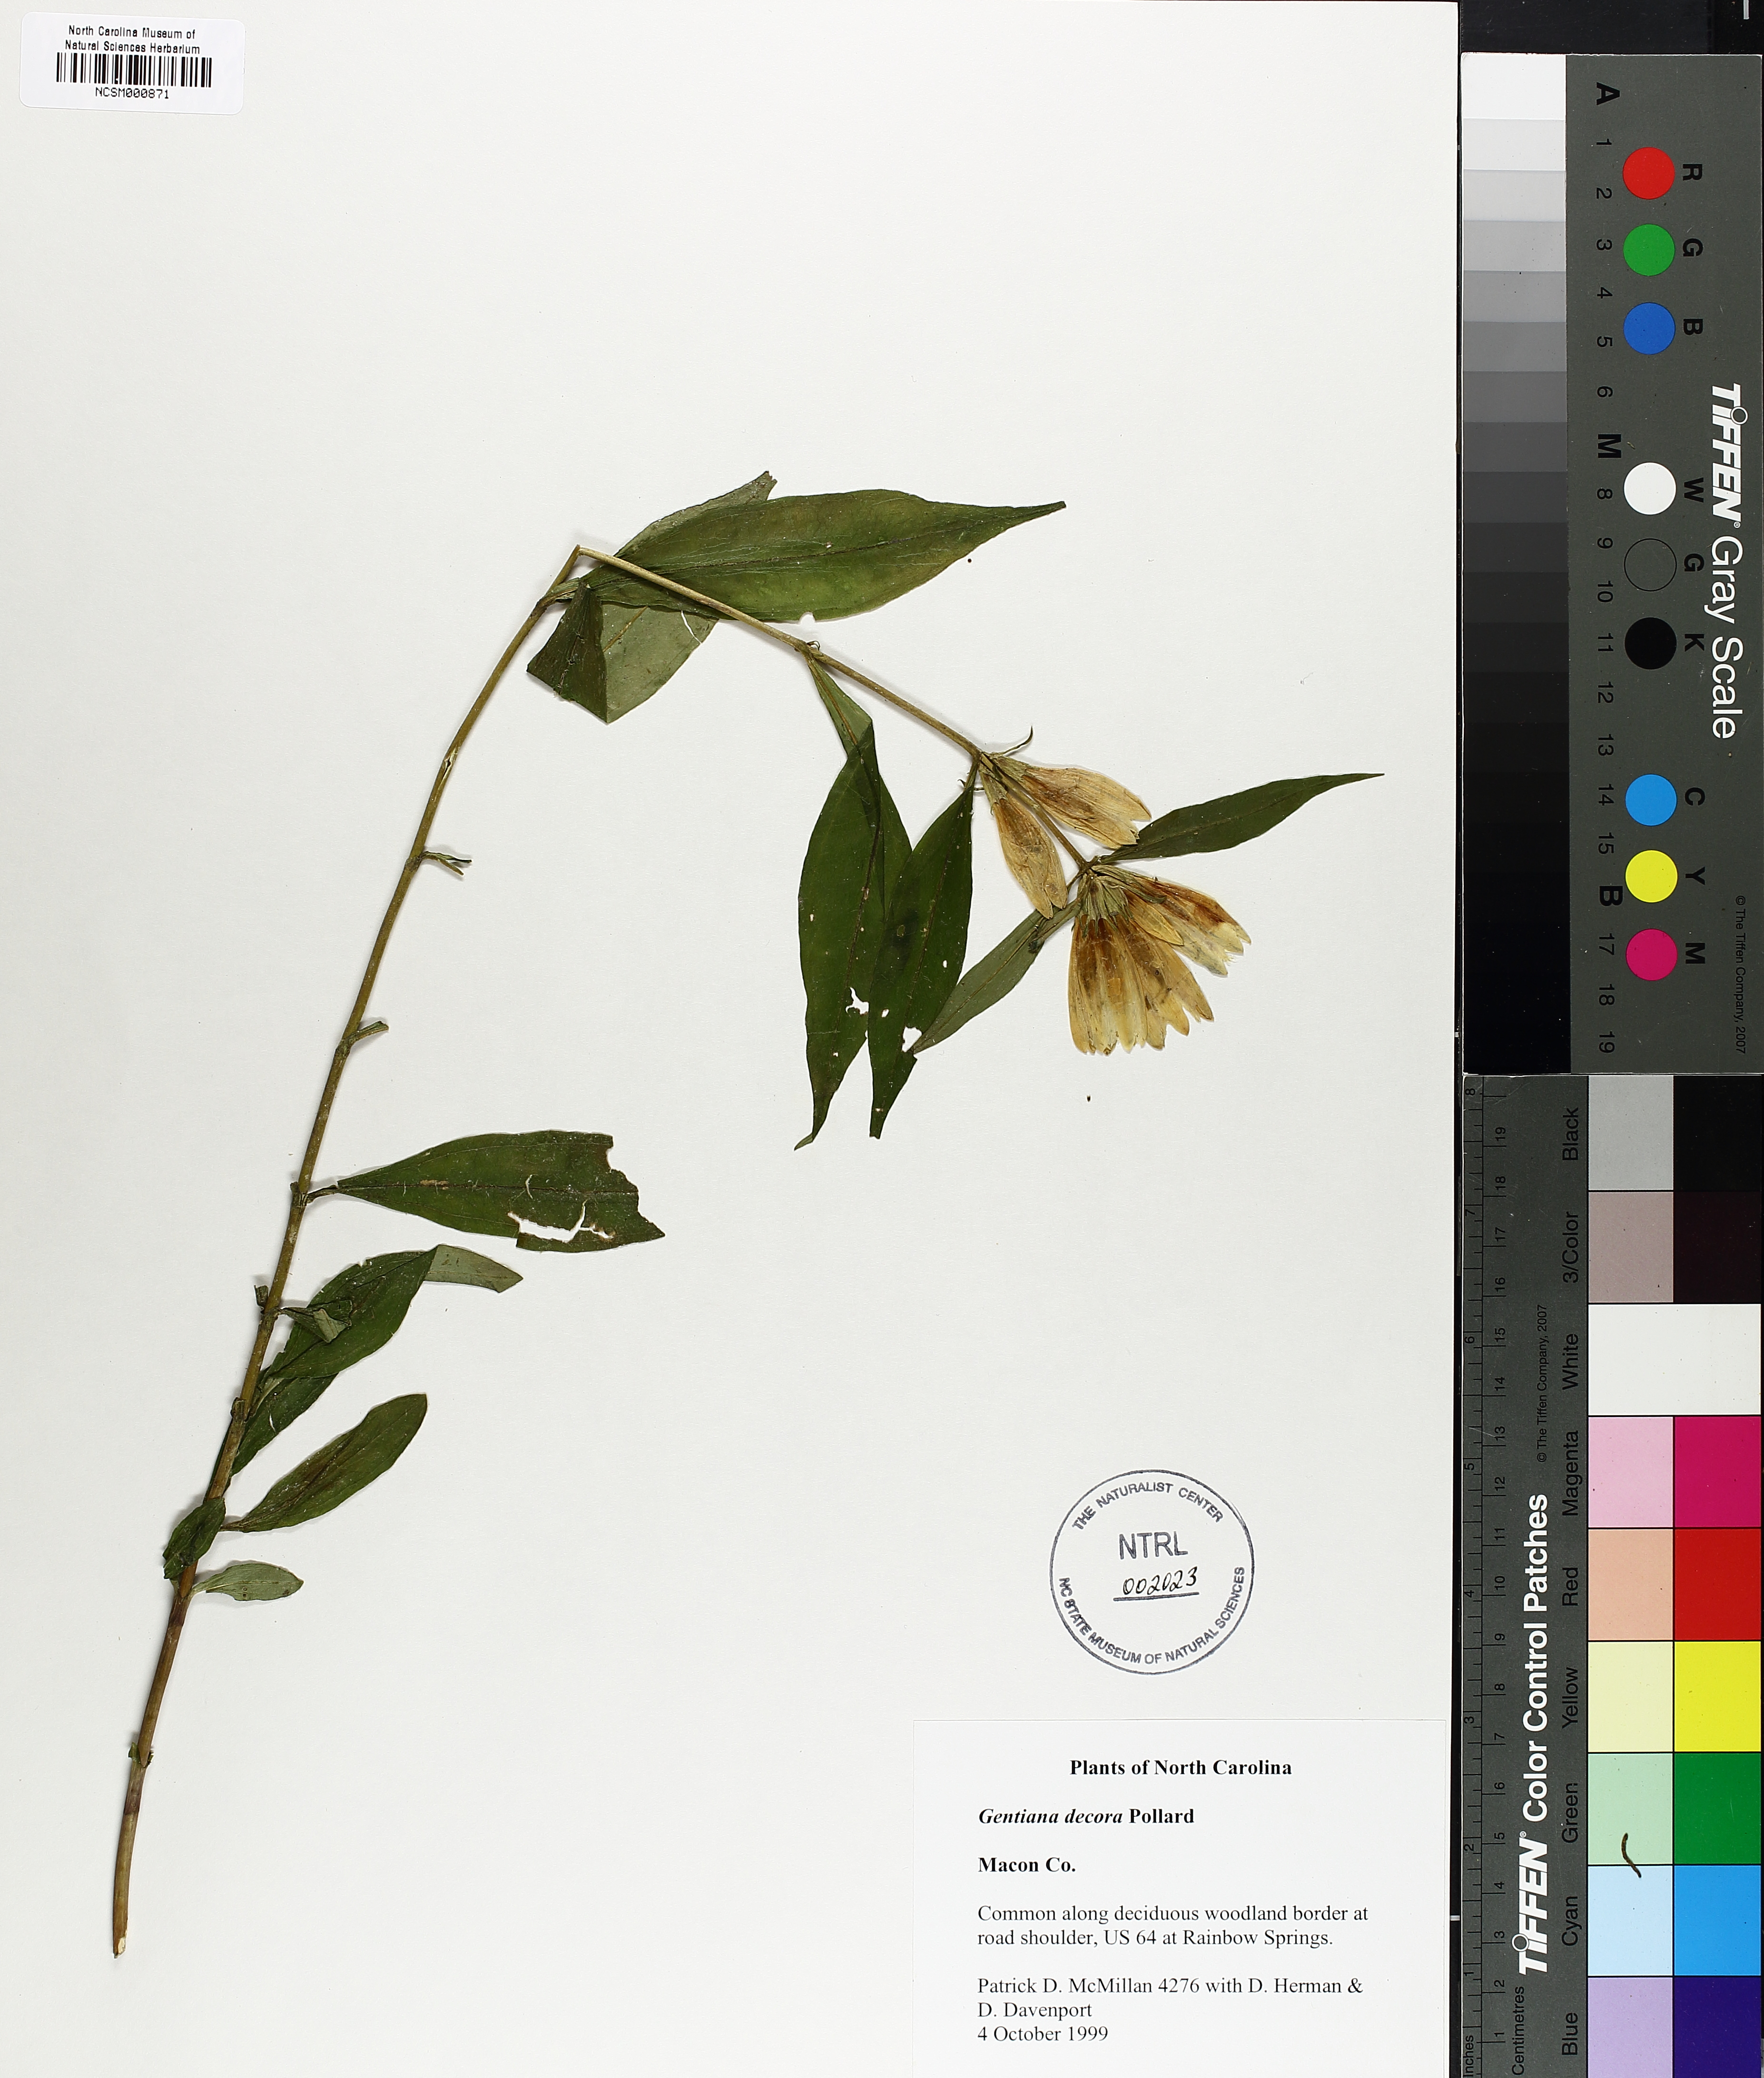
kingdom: Plantae
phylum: Tracheophyta
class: Magnoliopsida
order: Gentianales
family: Gentianaceae
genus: Gentiana
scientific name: Gentiana decora
